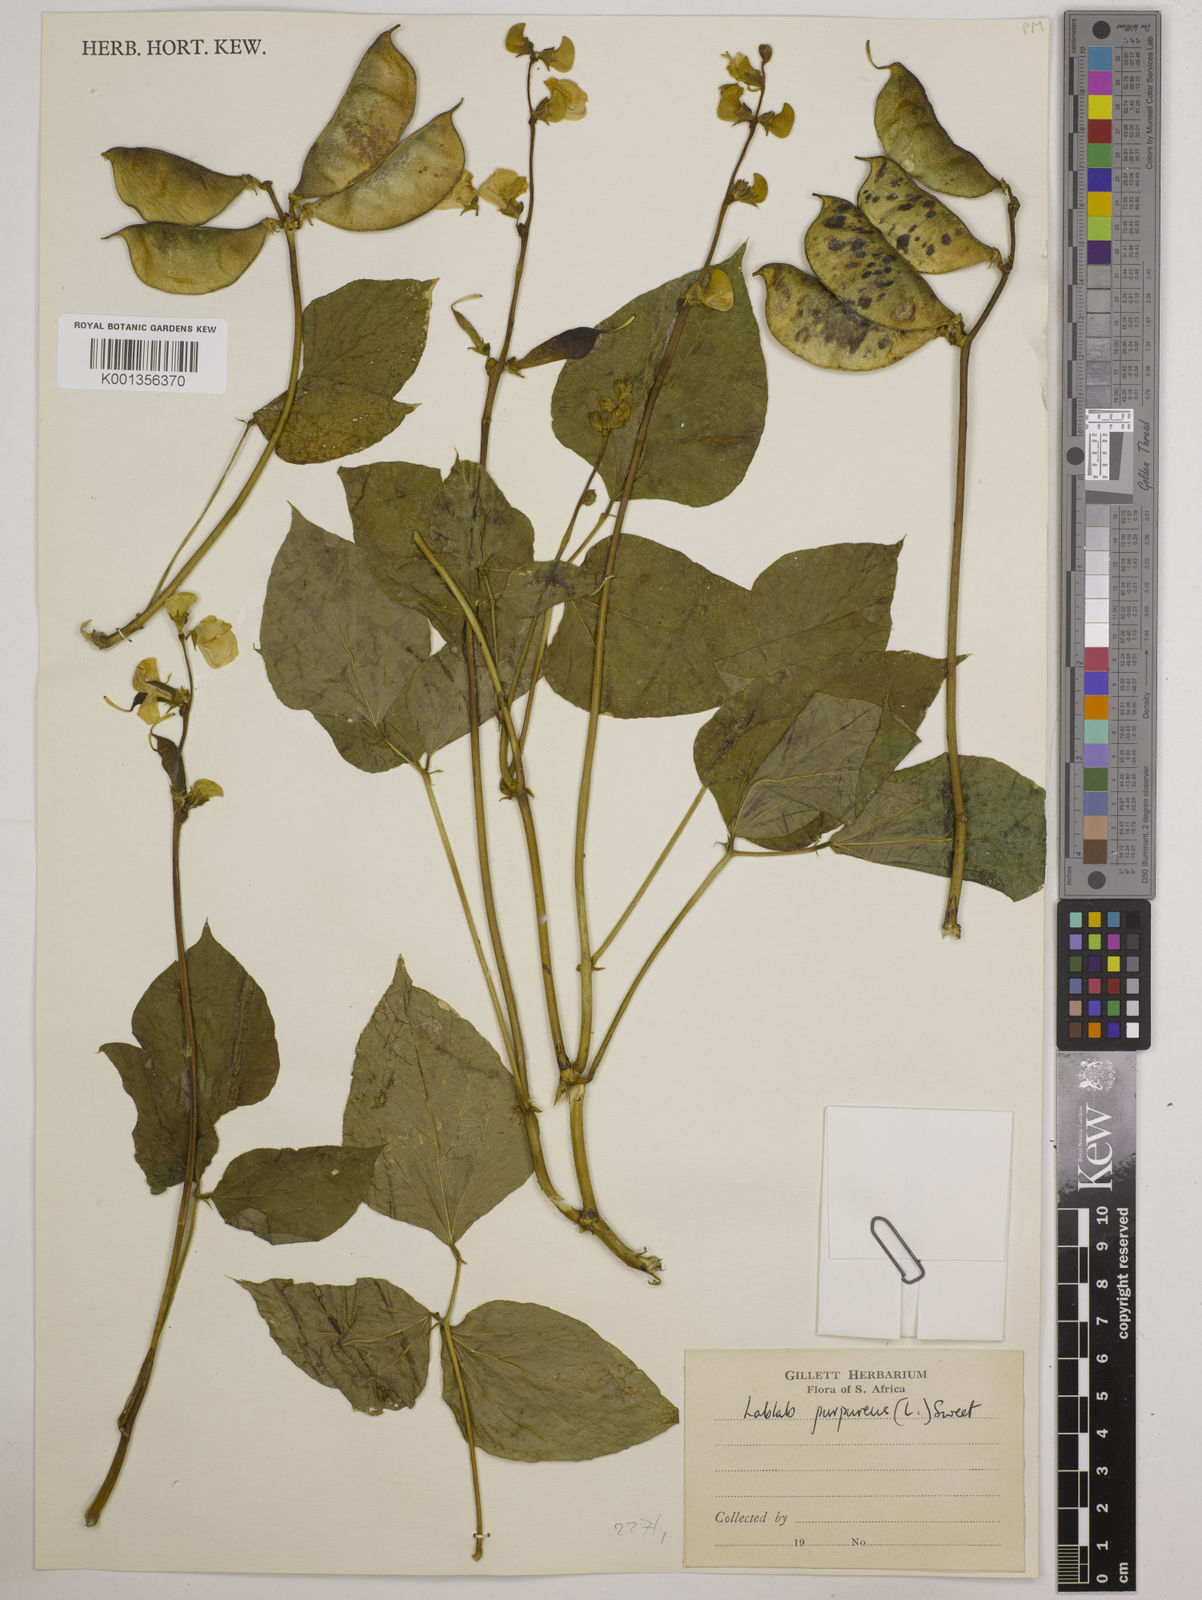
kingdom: Plantae
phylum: Tracheophyta
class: Magnoliopsida
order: Fabales
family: Fabaceae
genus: Lablab
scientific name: Lablab purpureus
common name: Lablab-bean
